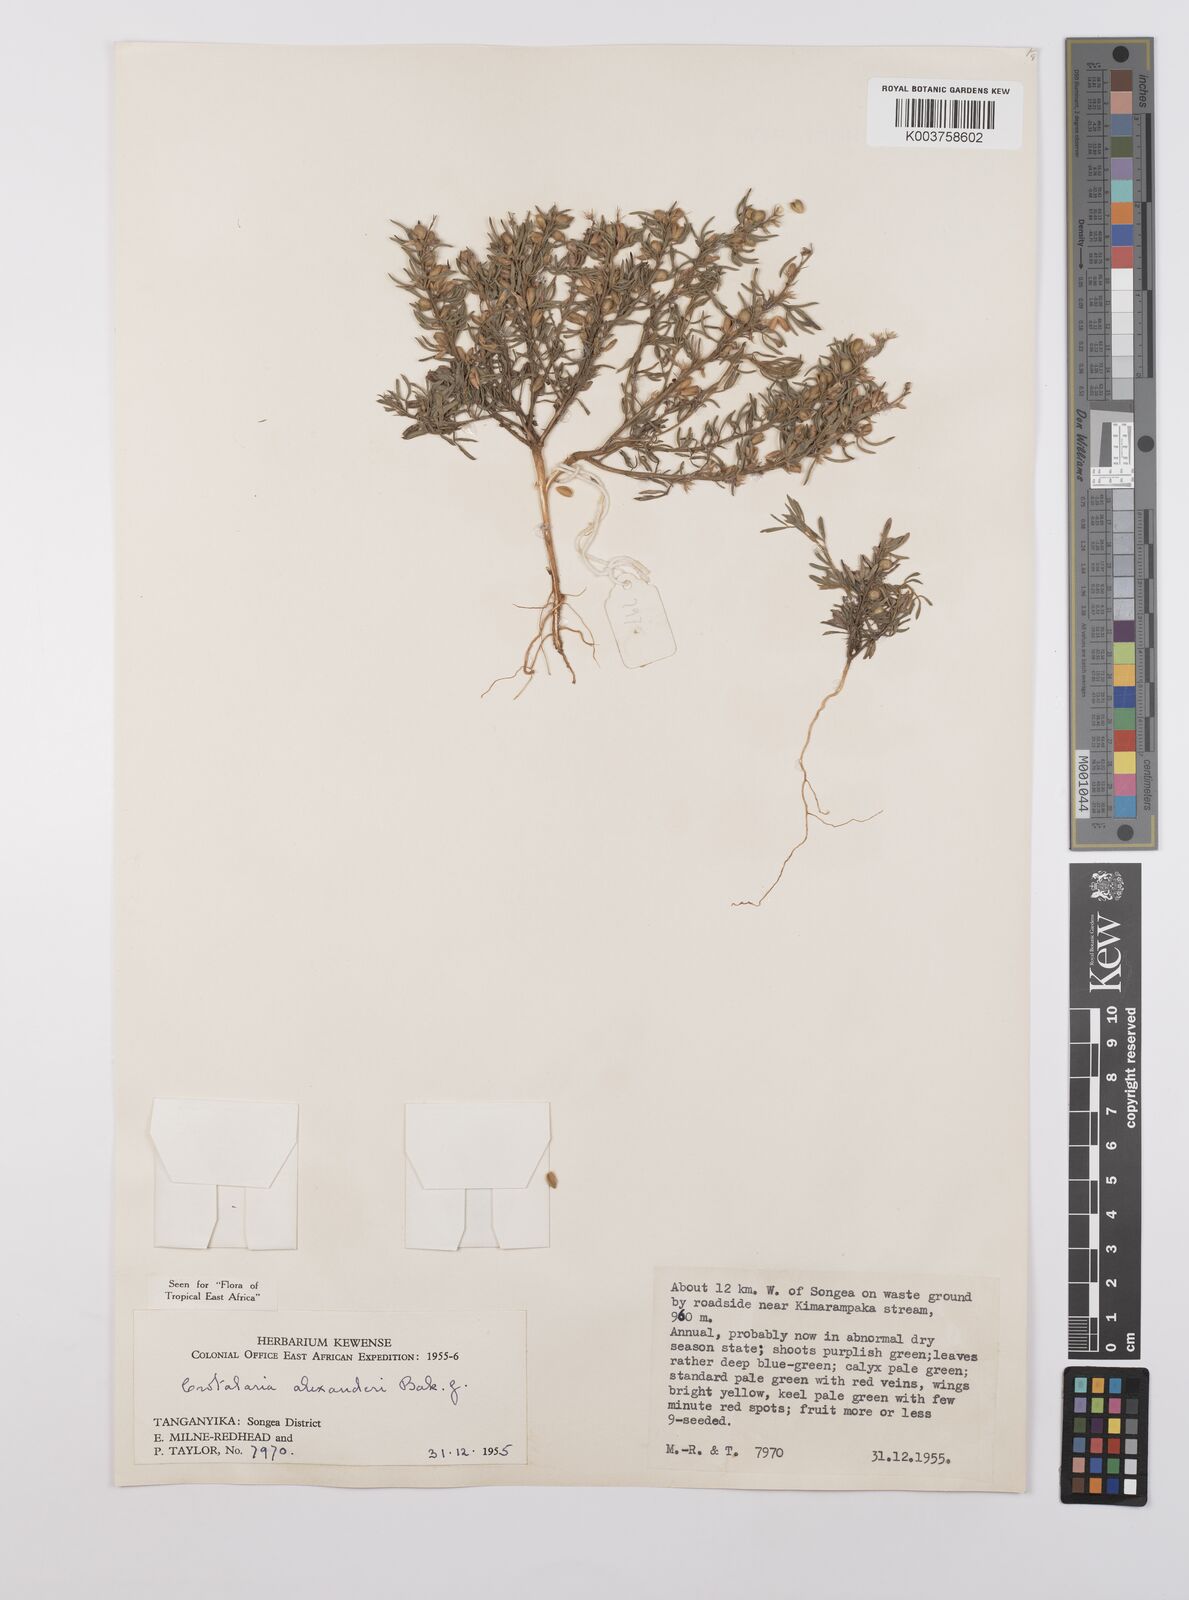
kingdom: Plantae
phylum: Tracheophyta
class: Magnoliopsida
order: Fabales
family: Fabaceae
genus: Crotalaria
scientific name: Crotalaria alexandri
